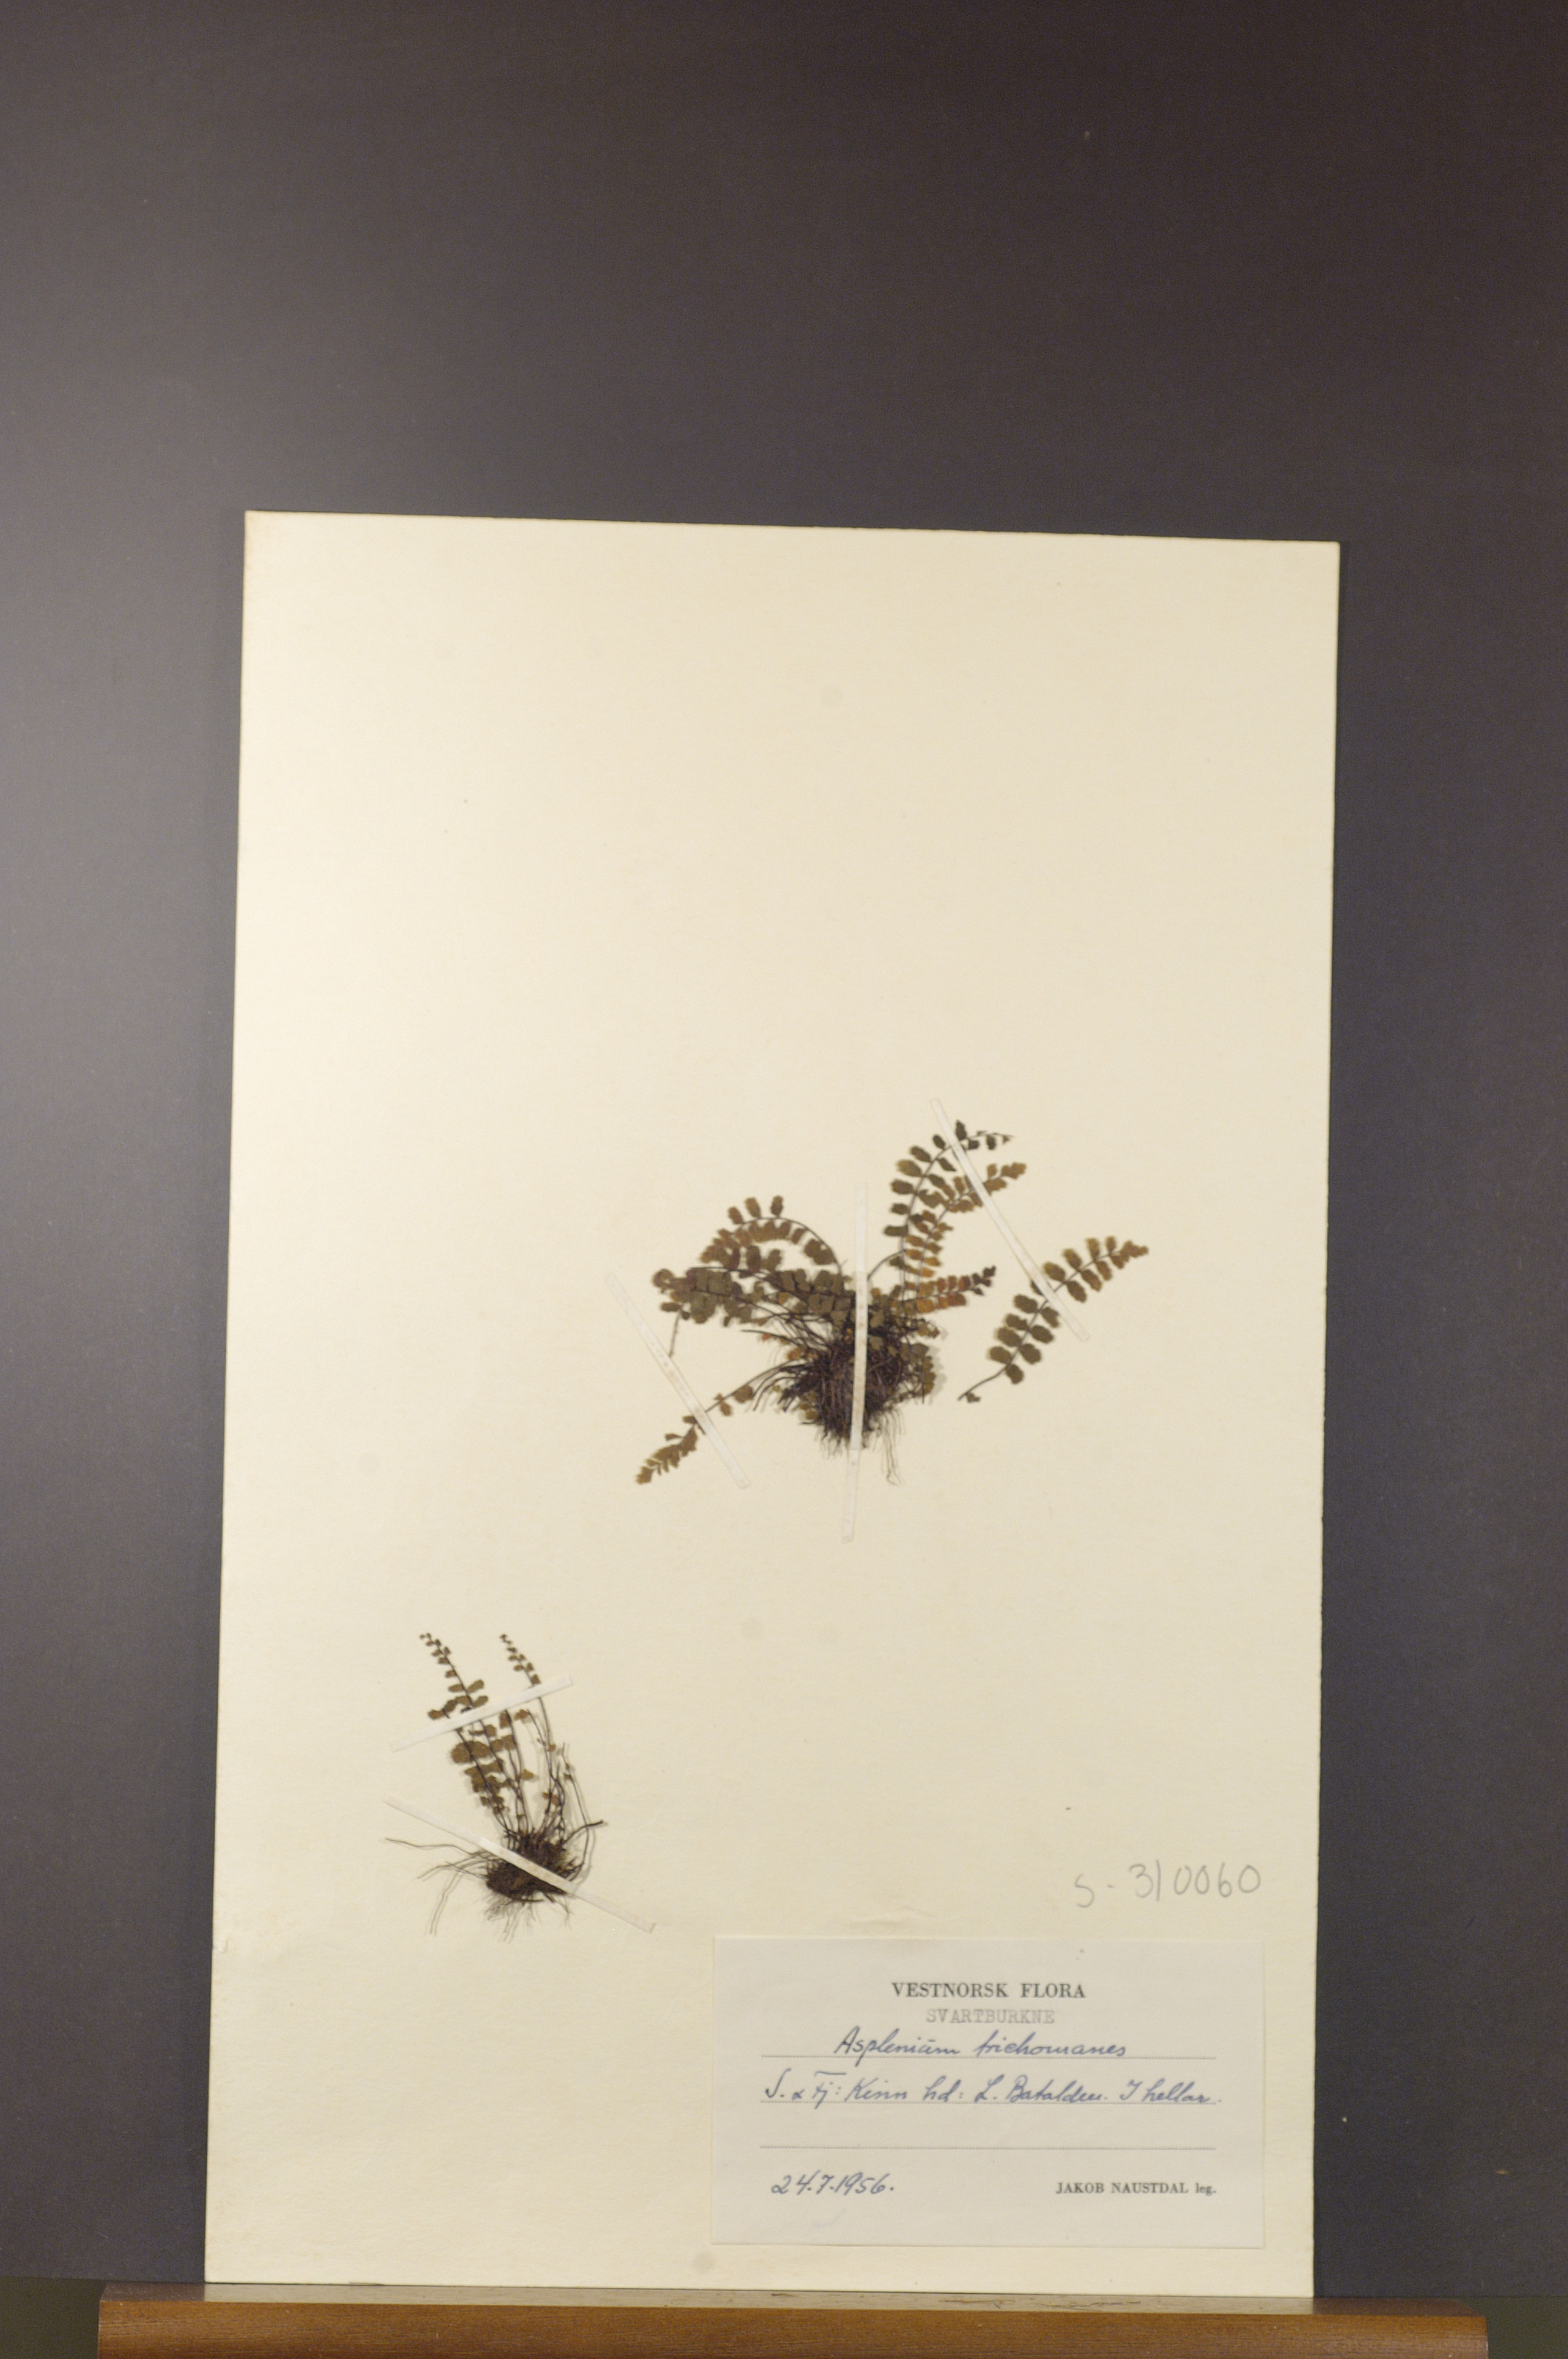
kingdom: Plantae
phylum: Tracheophyta
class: Polypodiopsida
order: Polypodiales
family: Aspleniaceae
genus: Asplenium
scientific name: Asplenium trichomanes
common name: Maidenhair spleenwort
